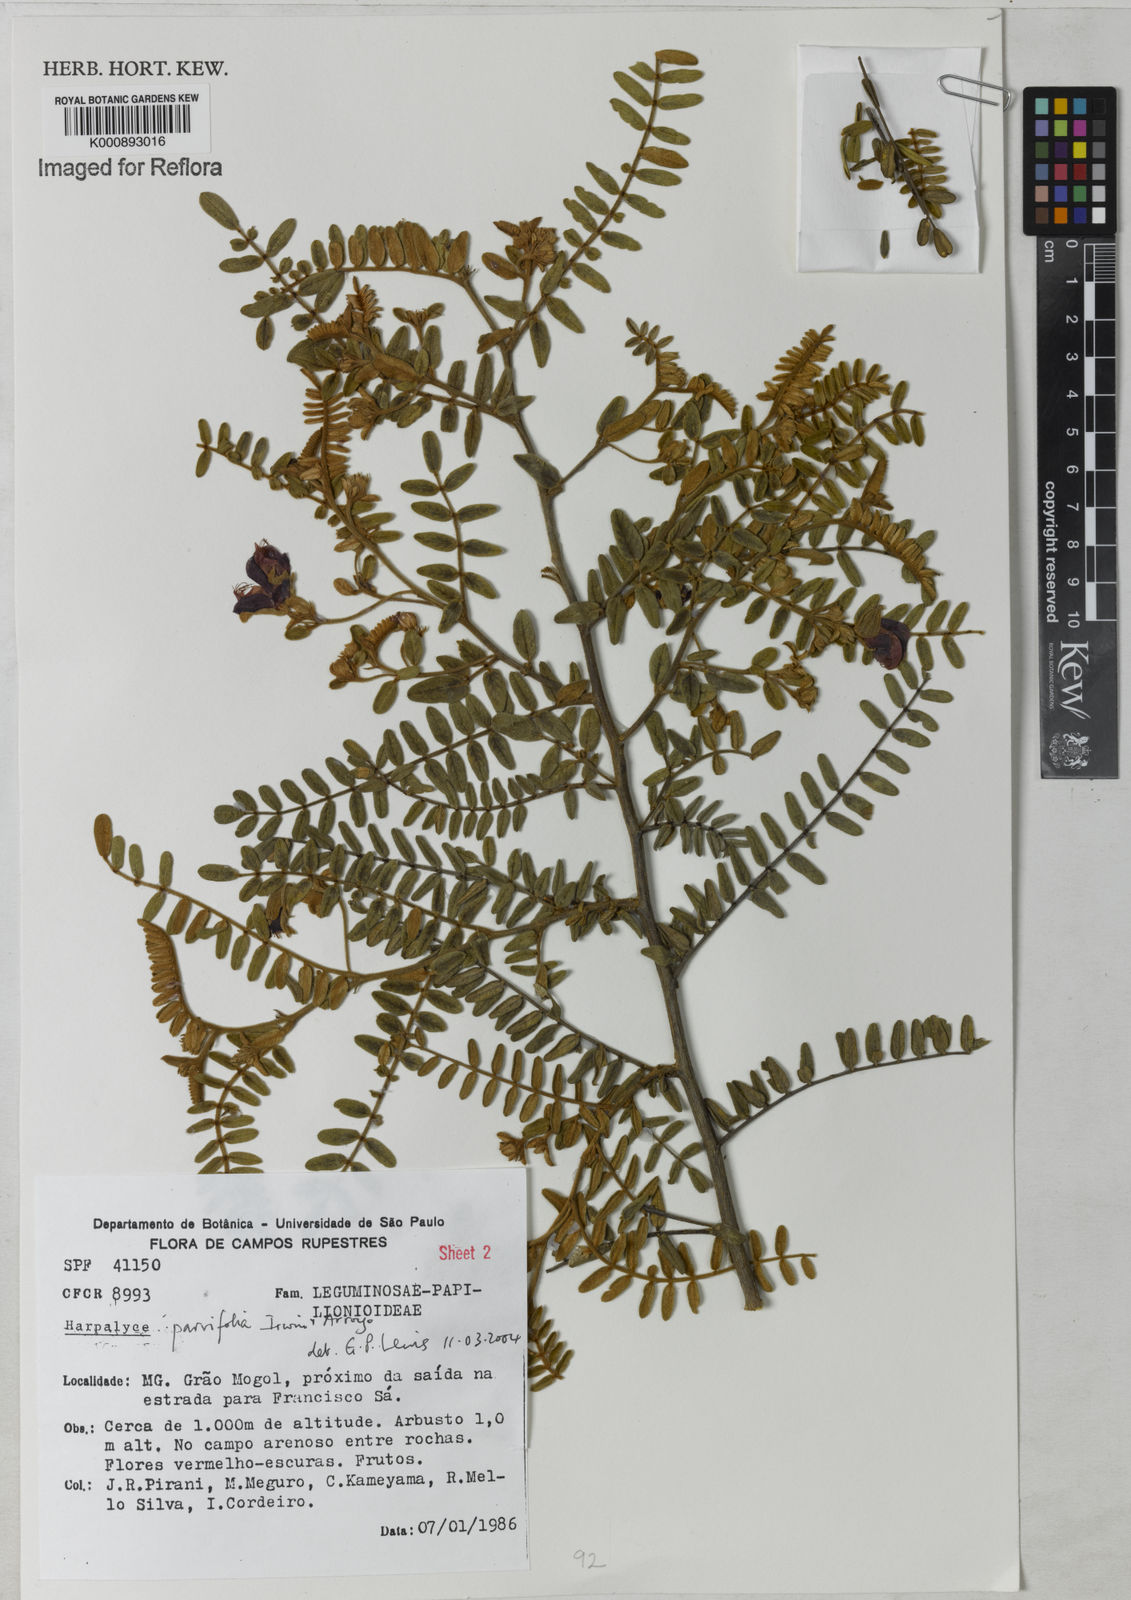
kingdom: Plantae
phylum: Tracheophyta
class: Magnoliopsida
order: Fabales
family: Fabaceae
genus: Harpalyce
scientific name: Harpalyce parvifolia
